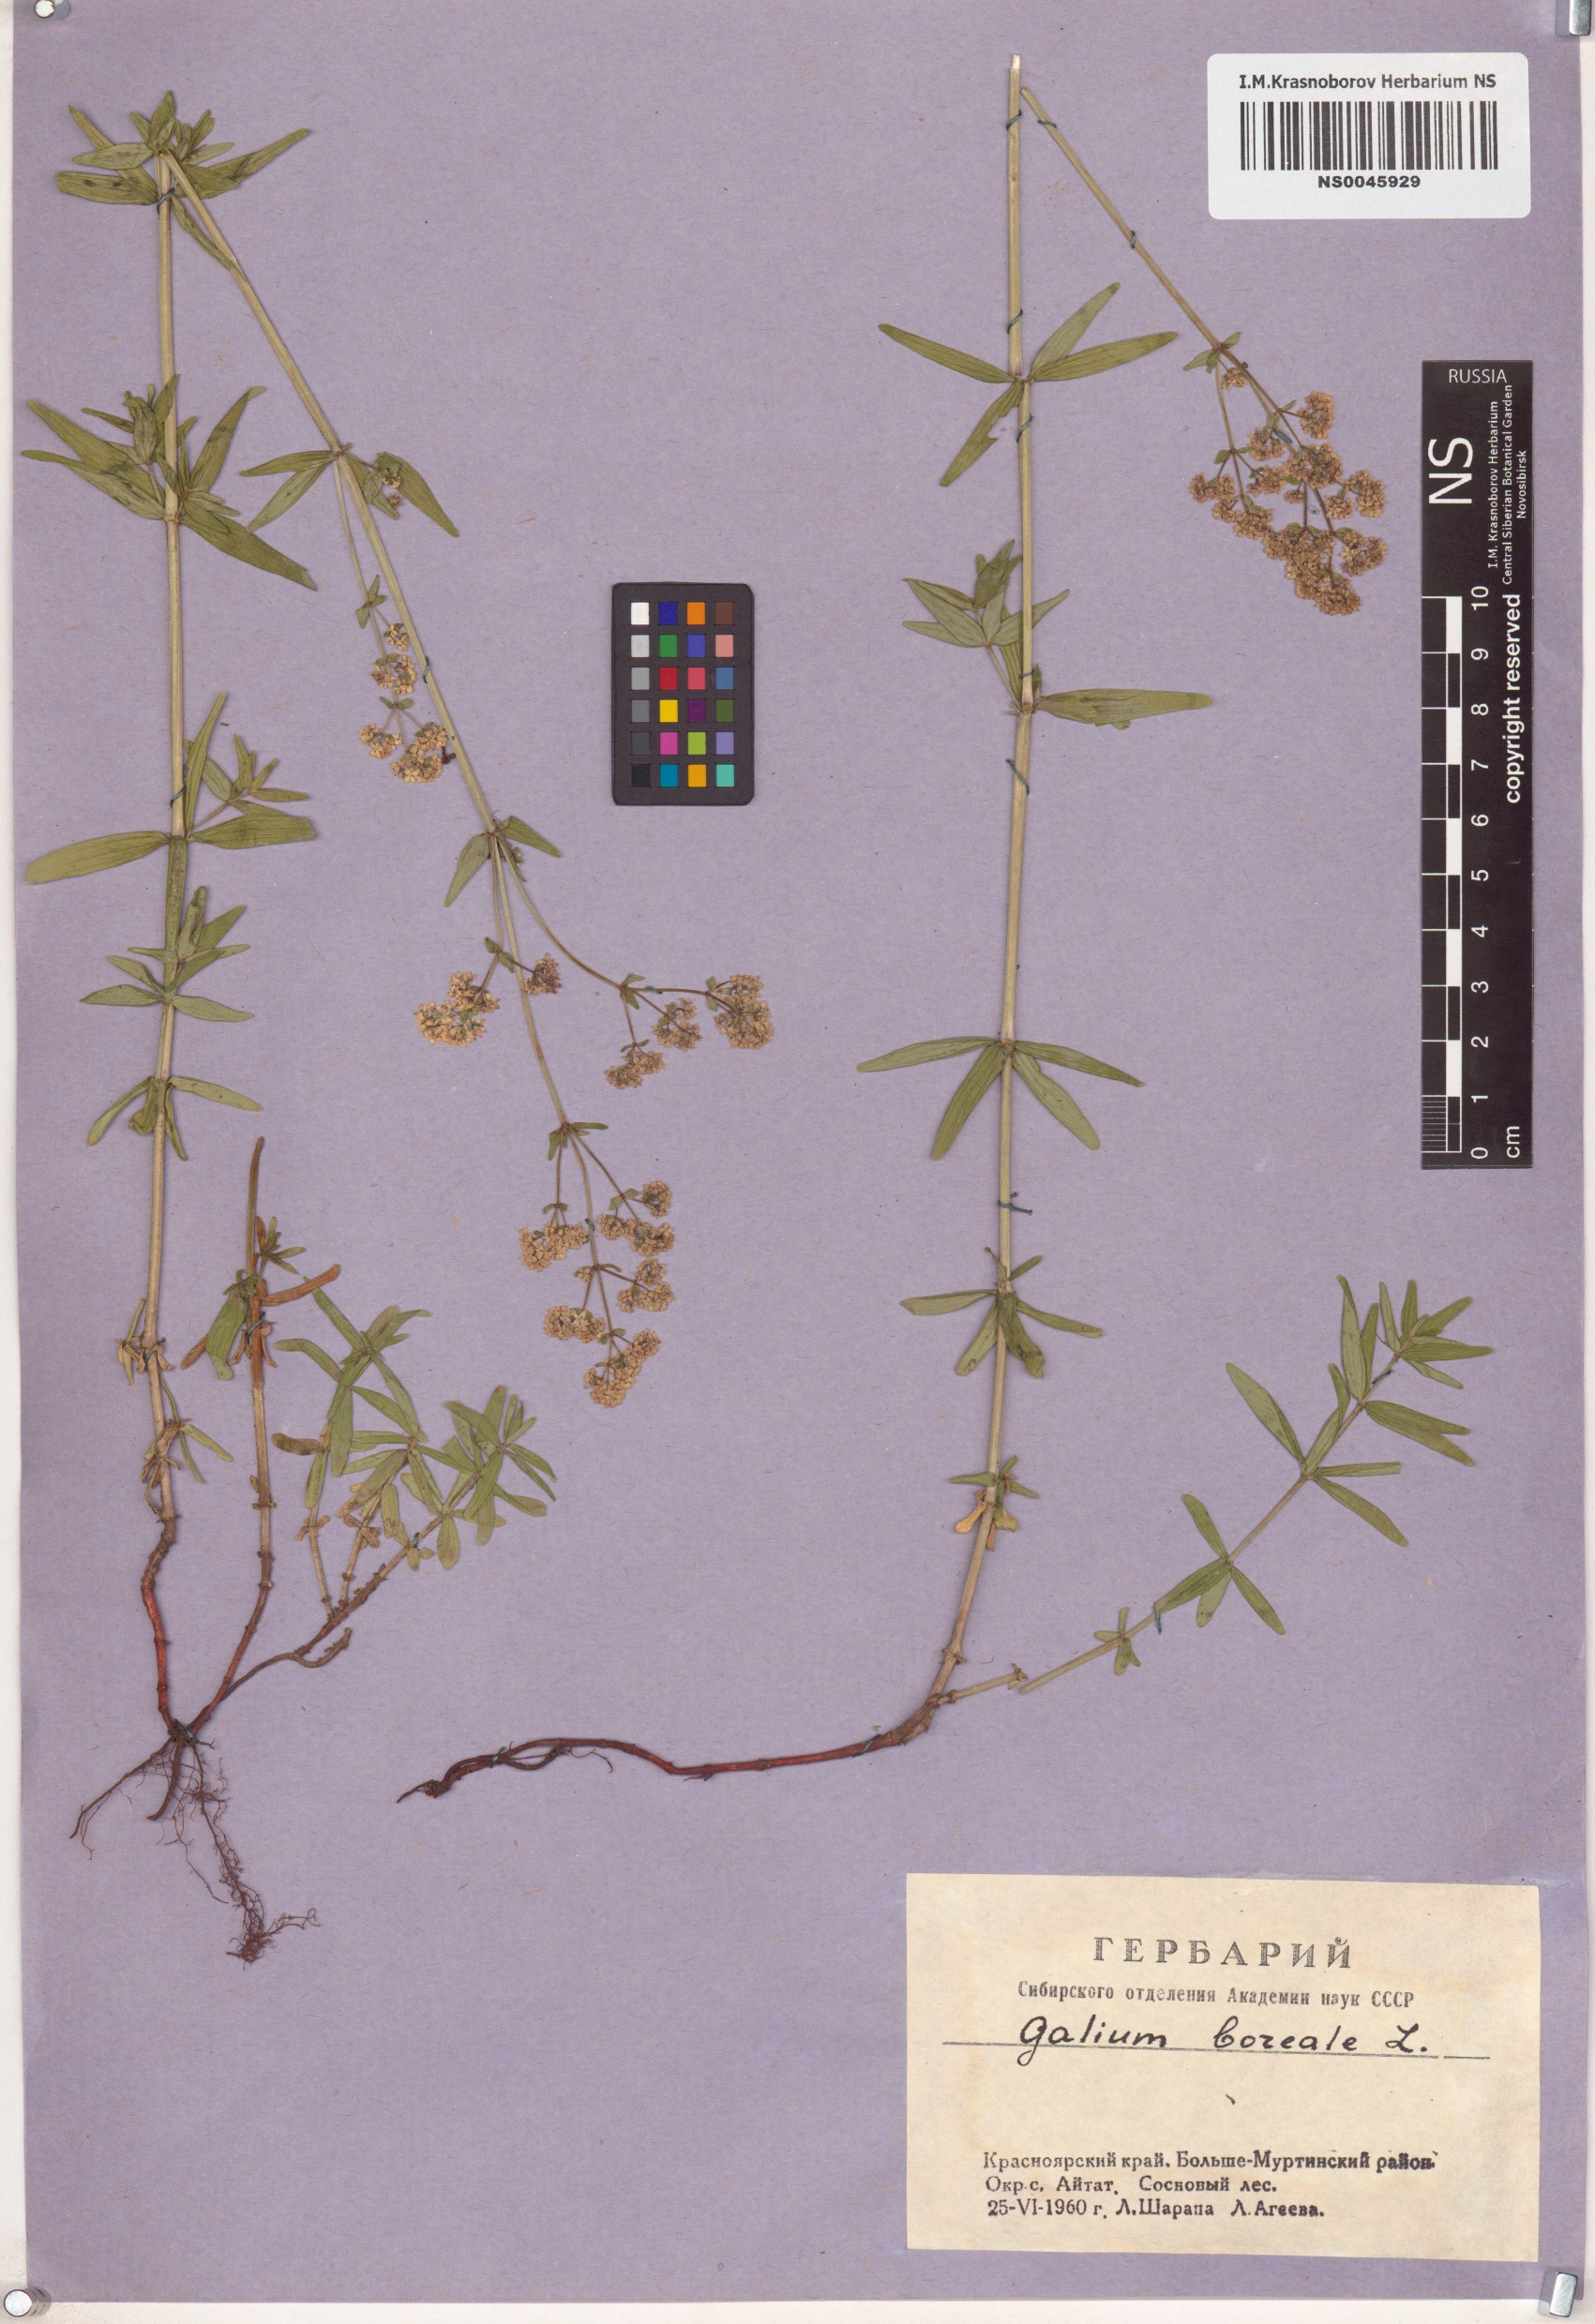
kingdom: Plantae
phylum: Tracheophyta
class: Magnoliopsida
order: Gentianales
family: Rubiaceae
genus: Galium
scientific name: Galium boreale
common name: Northern bedstraw
